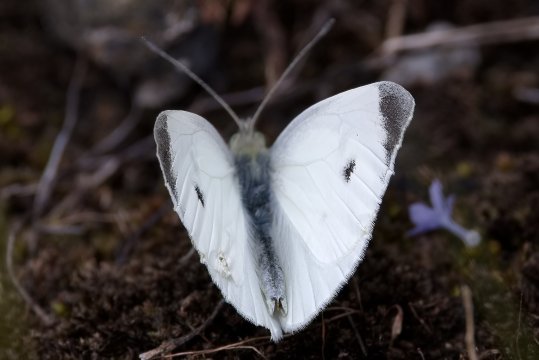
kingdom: Animalia
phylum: Arthropoda
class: Insecta
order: Lepidoptera
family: Pieridae
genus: Pieris
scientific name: Pieris rapae
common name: Cabbage White
